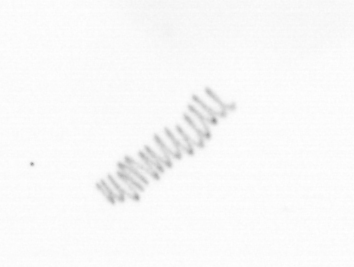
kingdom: Chromista
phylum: Ochrophyta
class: Bacillariophyceae
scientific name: Bacillariophyceae
